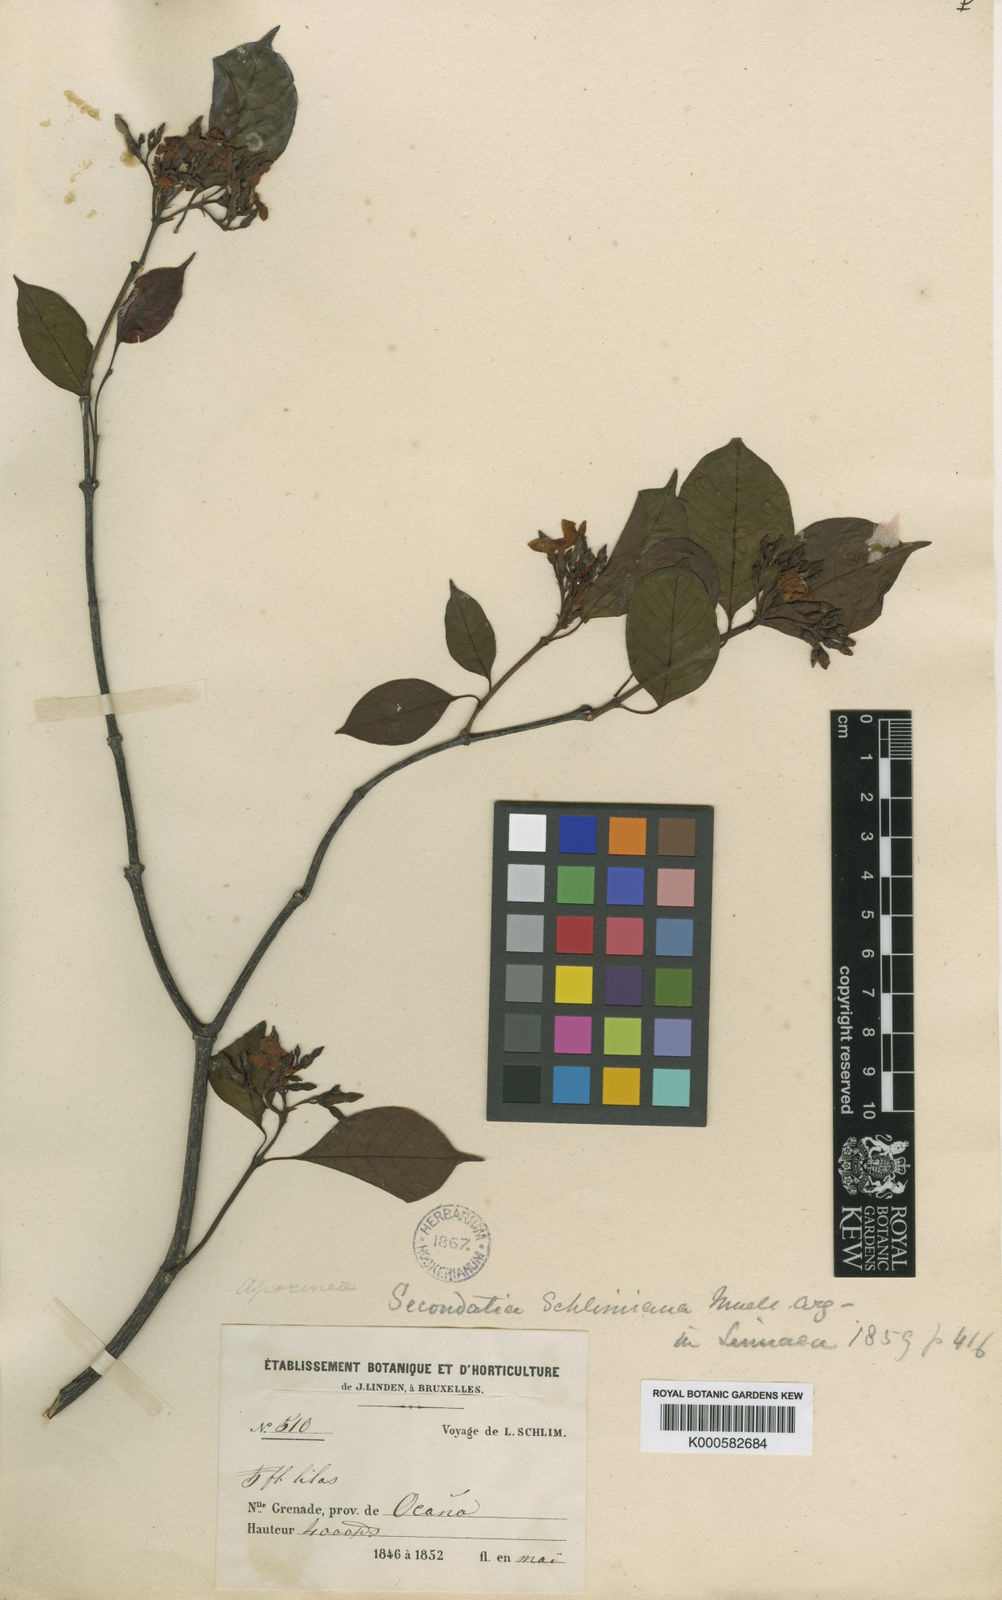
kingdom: Plantae
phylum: Tracheophyta
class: Magnoliopsida
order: Gentianales
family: Apocynaceae
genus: Secondatia
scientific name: Secondatia
